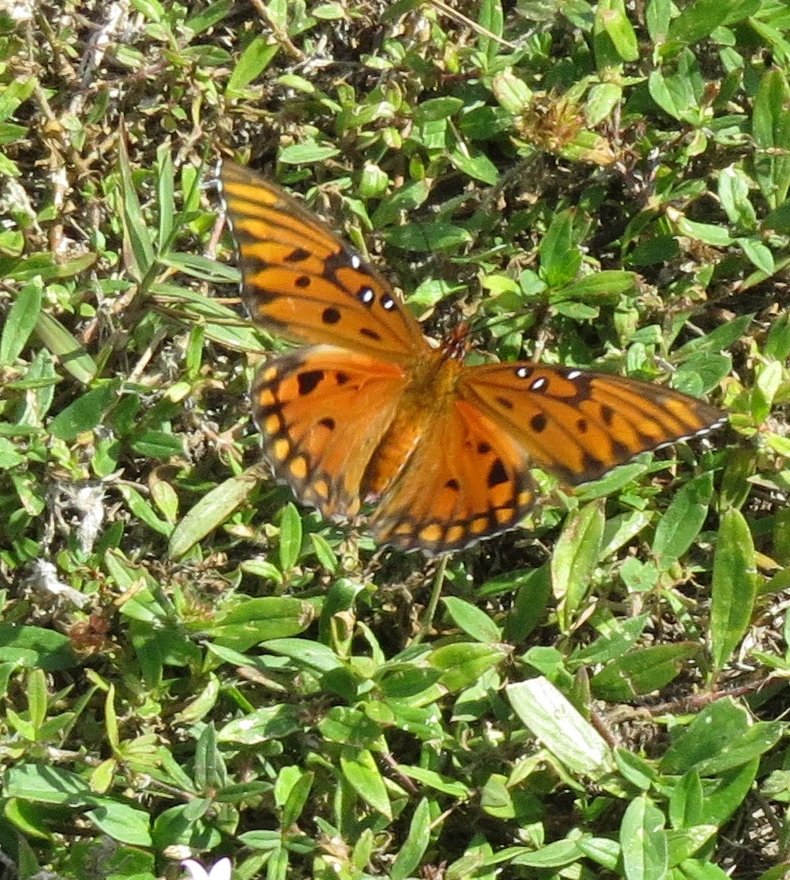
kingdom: Animalia
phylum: Arthropoda
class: Insecta
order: Lepidoptera
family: Nymphalidae
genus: Dione
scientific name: Dione vanillae
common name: Gulf Fritillary
